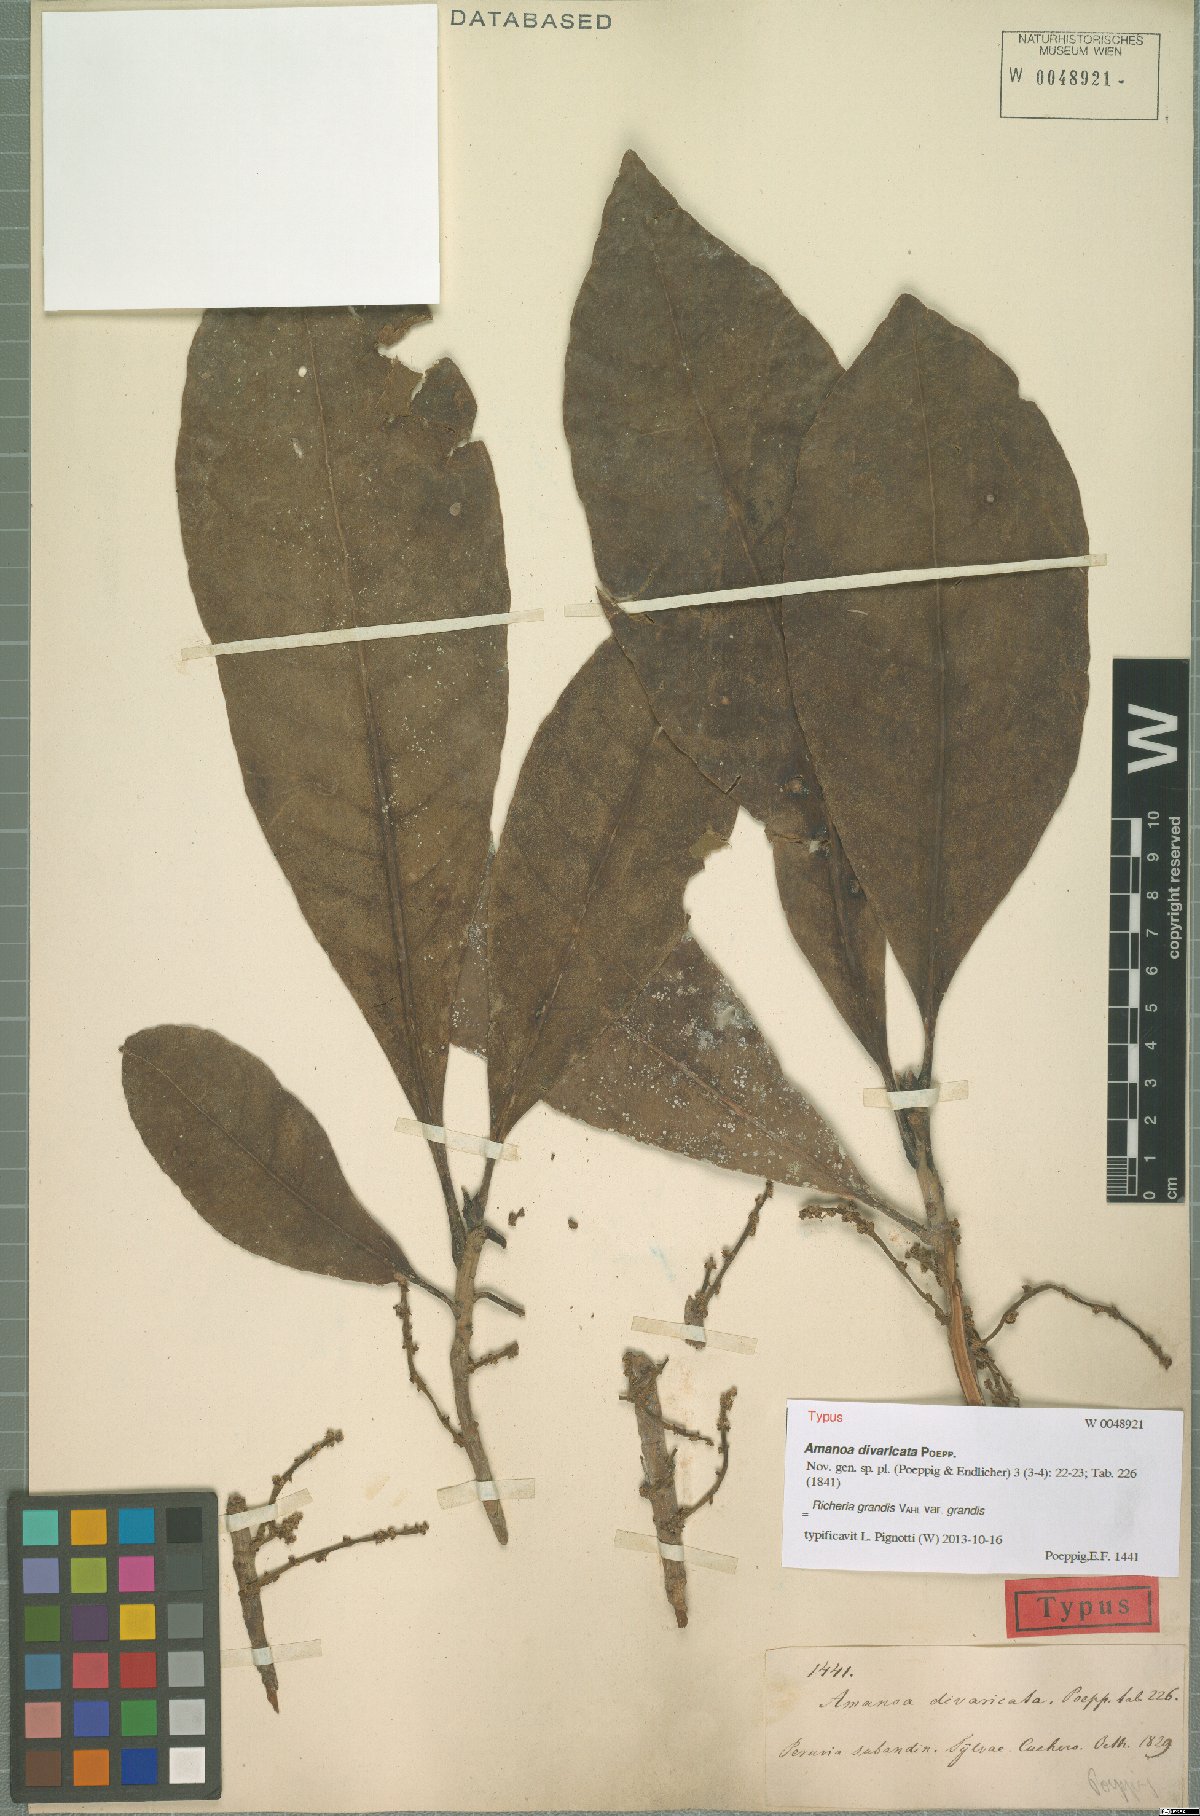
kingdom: Plantae
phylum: Tracheophyta
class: Magnoliopsida
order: Malpighiales
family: Phyllanthaceae
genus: Richeria
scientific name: Richeria grandis
